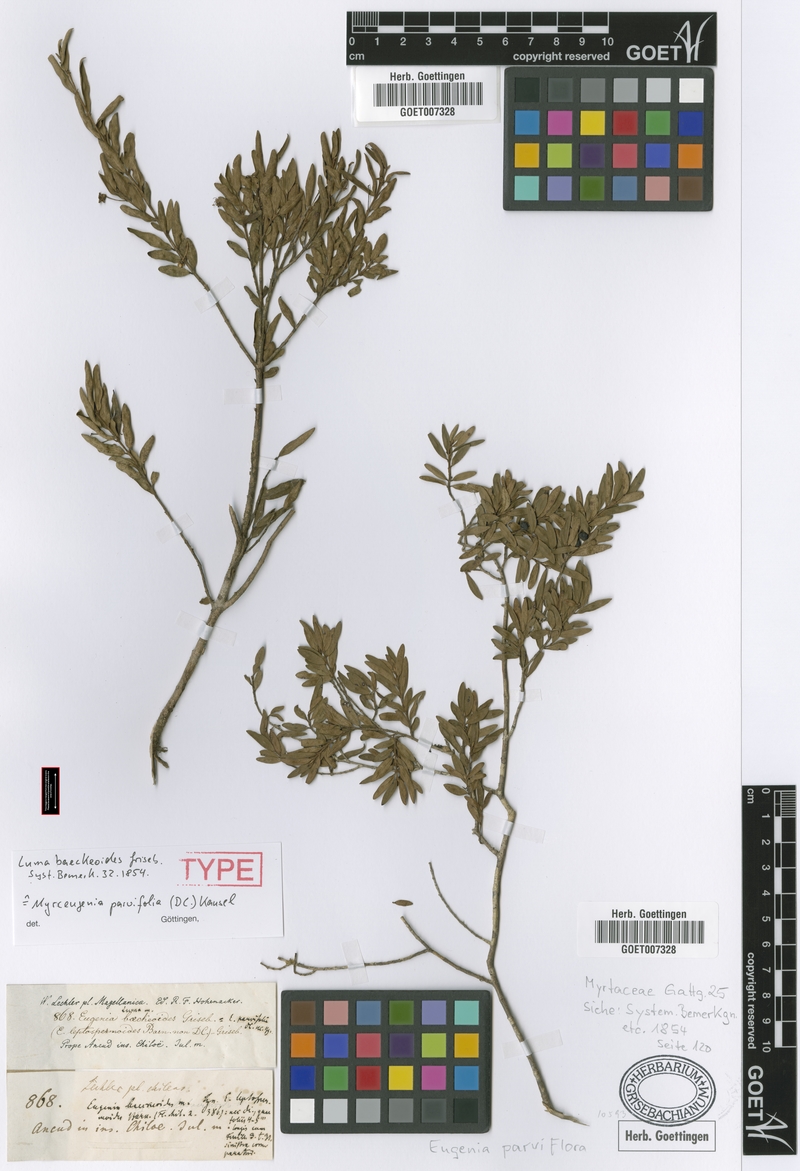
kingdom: Plantae
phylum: Tracheophyta
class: Magnoliopsida
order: Myrtales
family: Myrtaceae
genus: Myrceugenia
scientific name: Myrceugenia parvifolia
